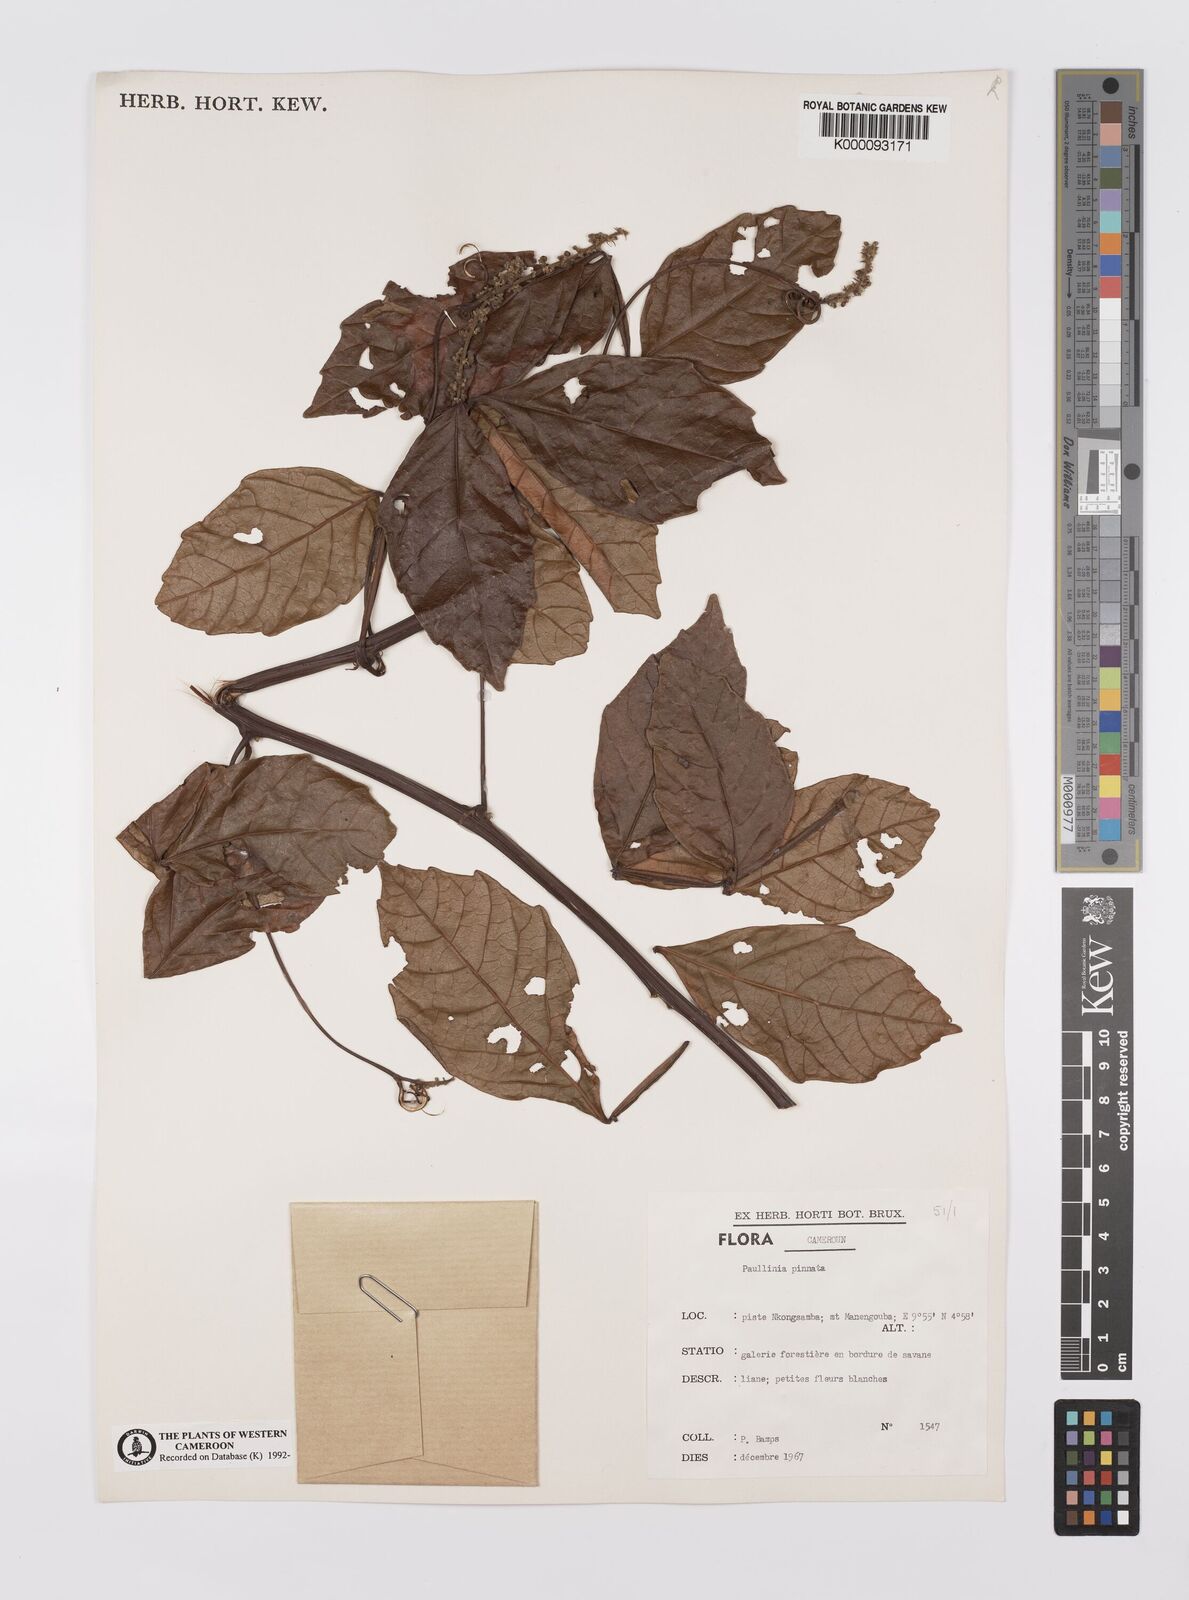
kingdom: Plantae
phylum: Tracheophyta
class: Magnoliopsida
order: Sapindales
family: Sapindaceae
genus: Paullinia
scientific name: Paullinia pinnata
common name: Barbasco
